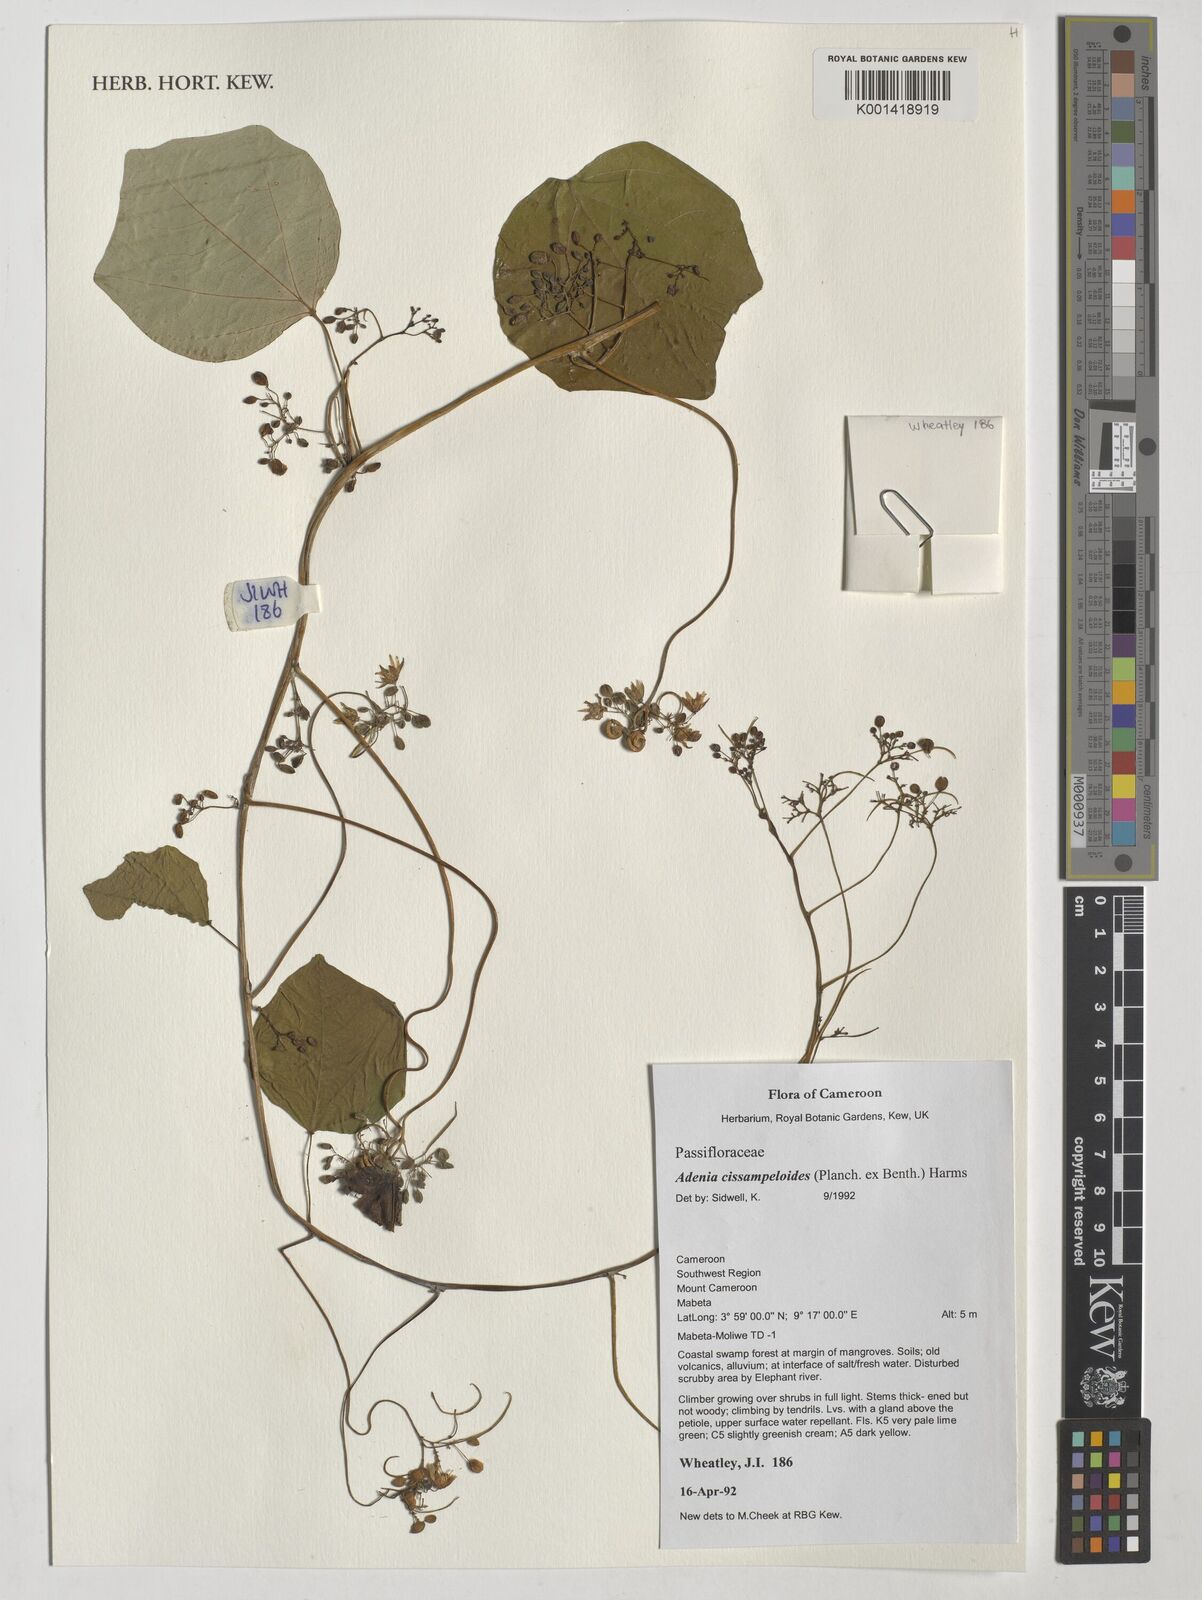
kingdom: Plantae
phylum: Tracheophyta
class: Magnoliopsida
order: Malpighiales
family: Passifloraceae
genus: Adenia
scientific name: Adenia cissampeloides
